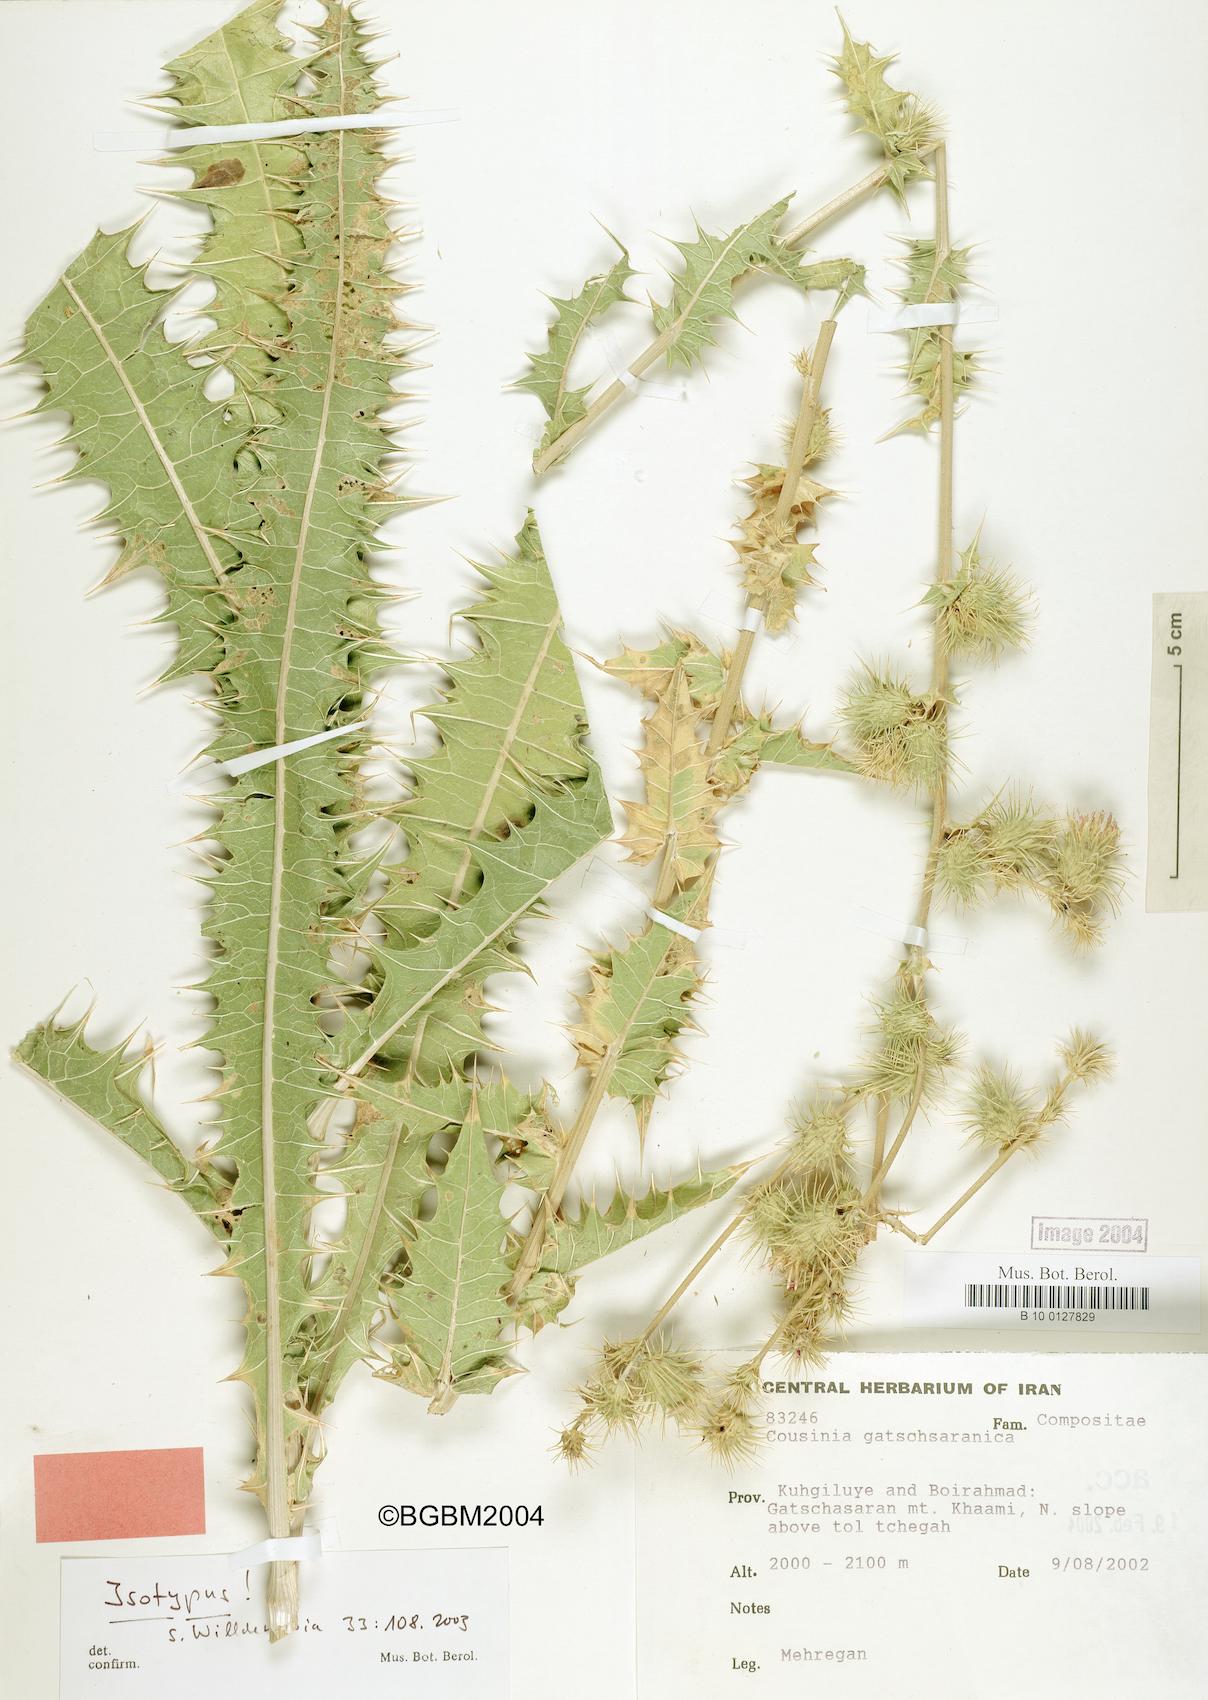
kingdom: Plantae
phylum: Tracheophyta
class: Magnoliopsida
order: Asterales
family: Asteraceae
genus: Cousinia
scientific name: Cousinia gatchsaranica
